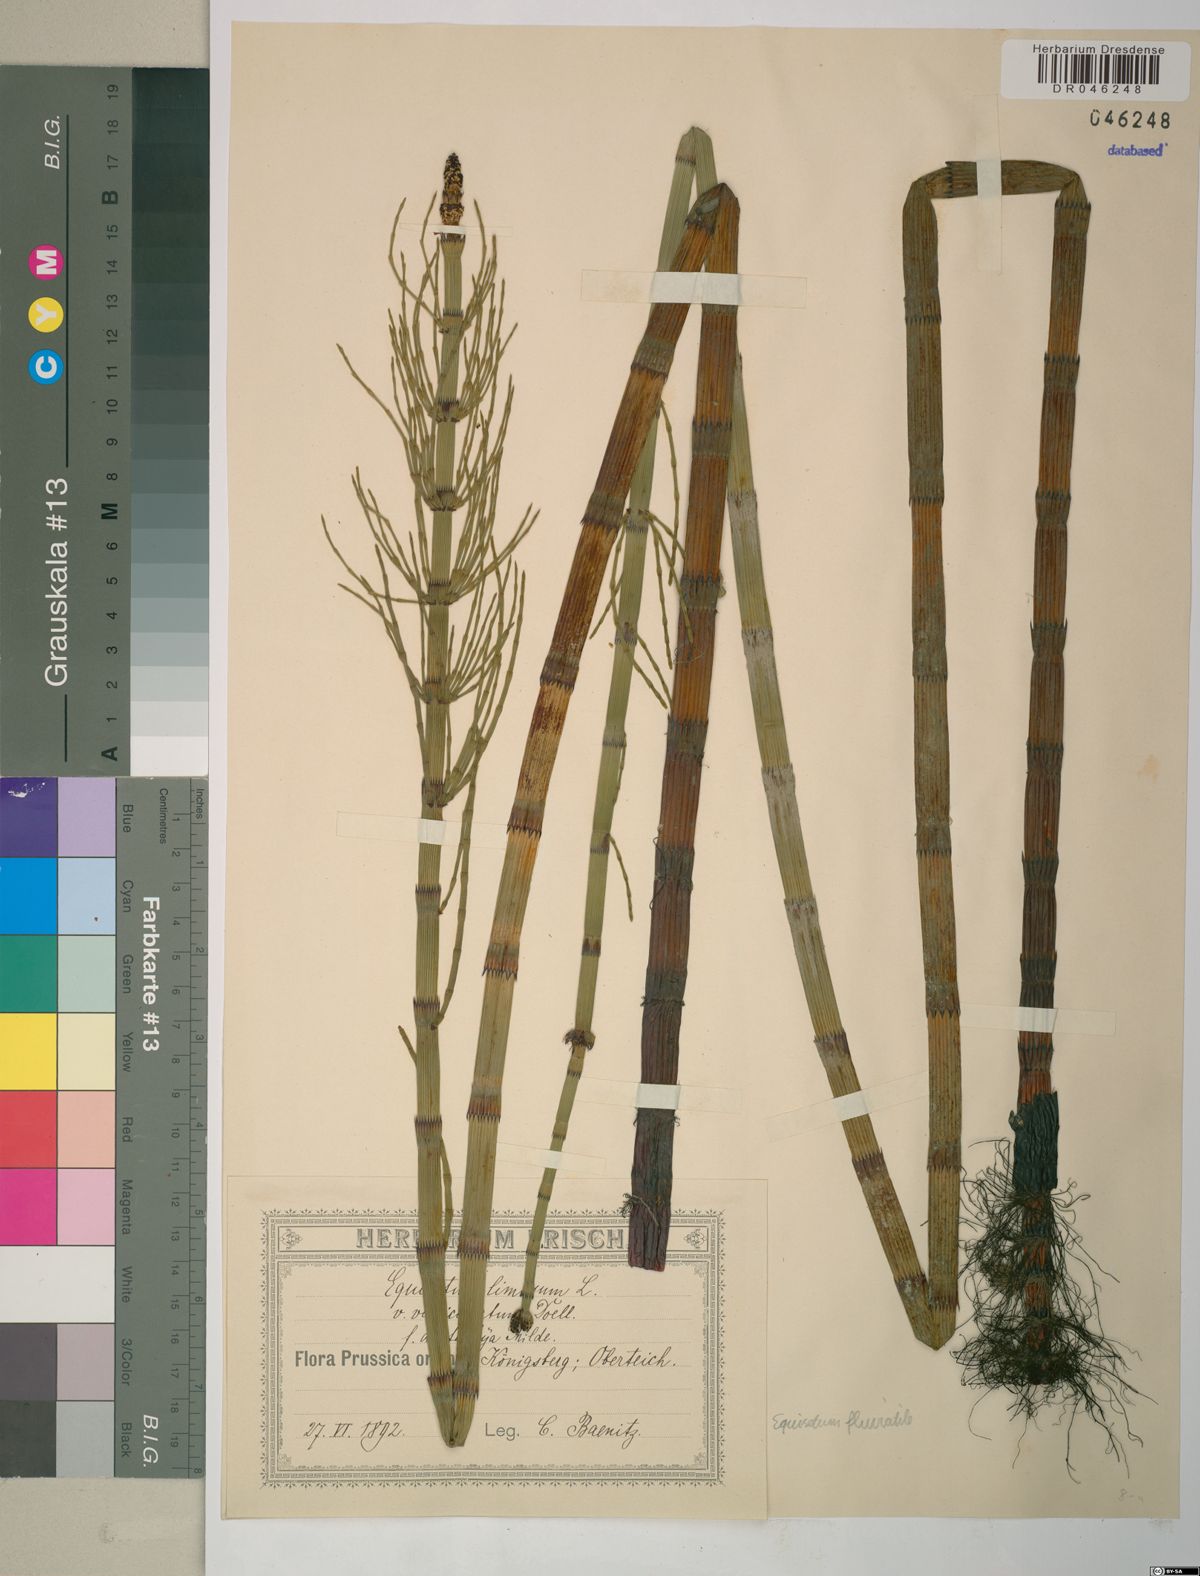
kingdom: Plantae
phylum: Tracheophyta
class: Polypodiopsida
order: Equisetales
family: Equisetaceae
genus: Equisetum
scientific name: Equisetum fluviatile
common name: Water horsetail
